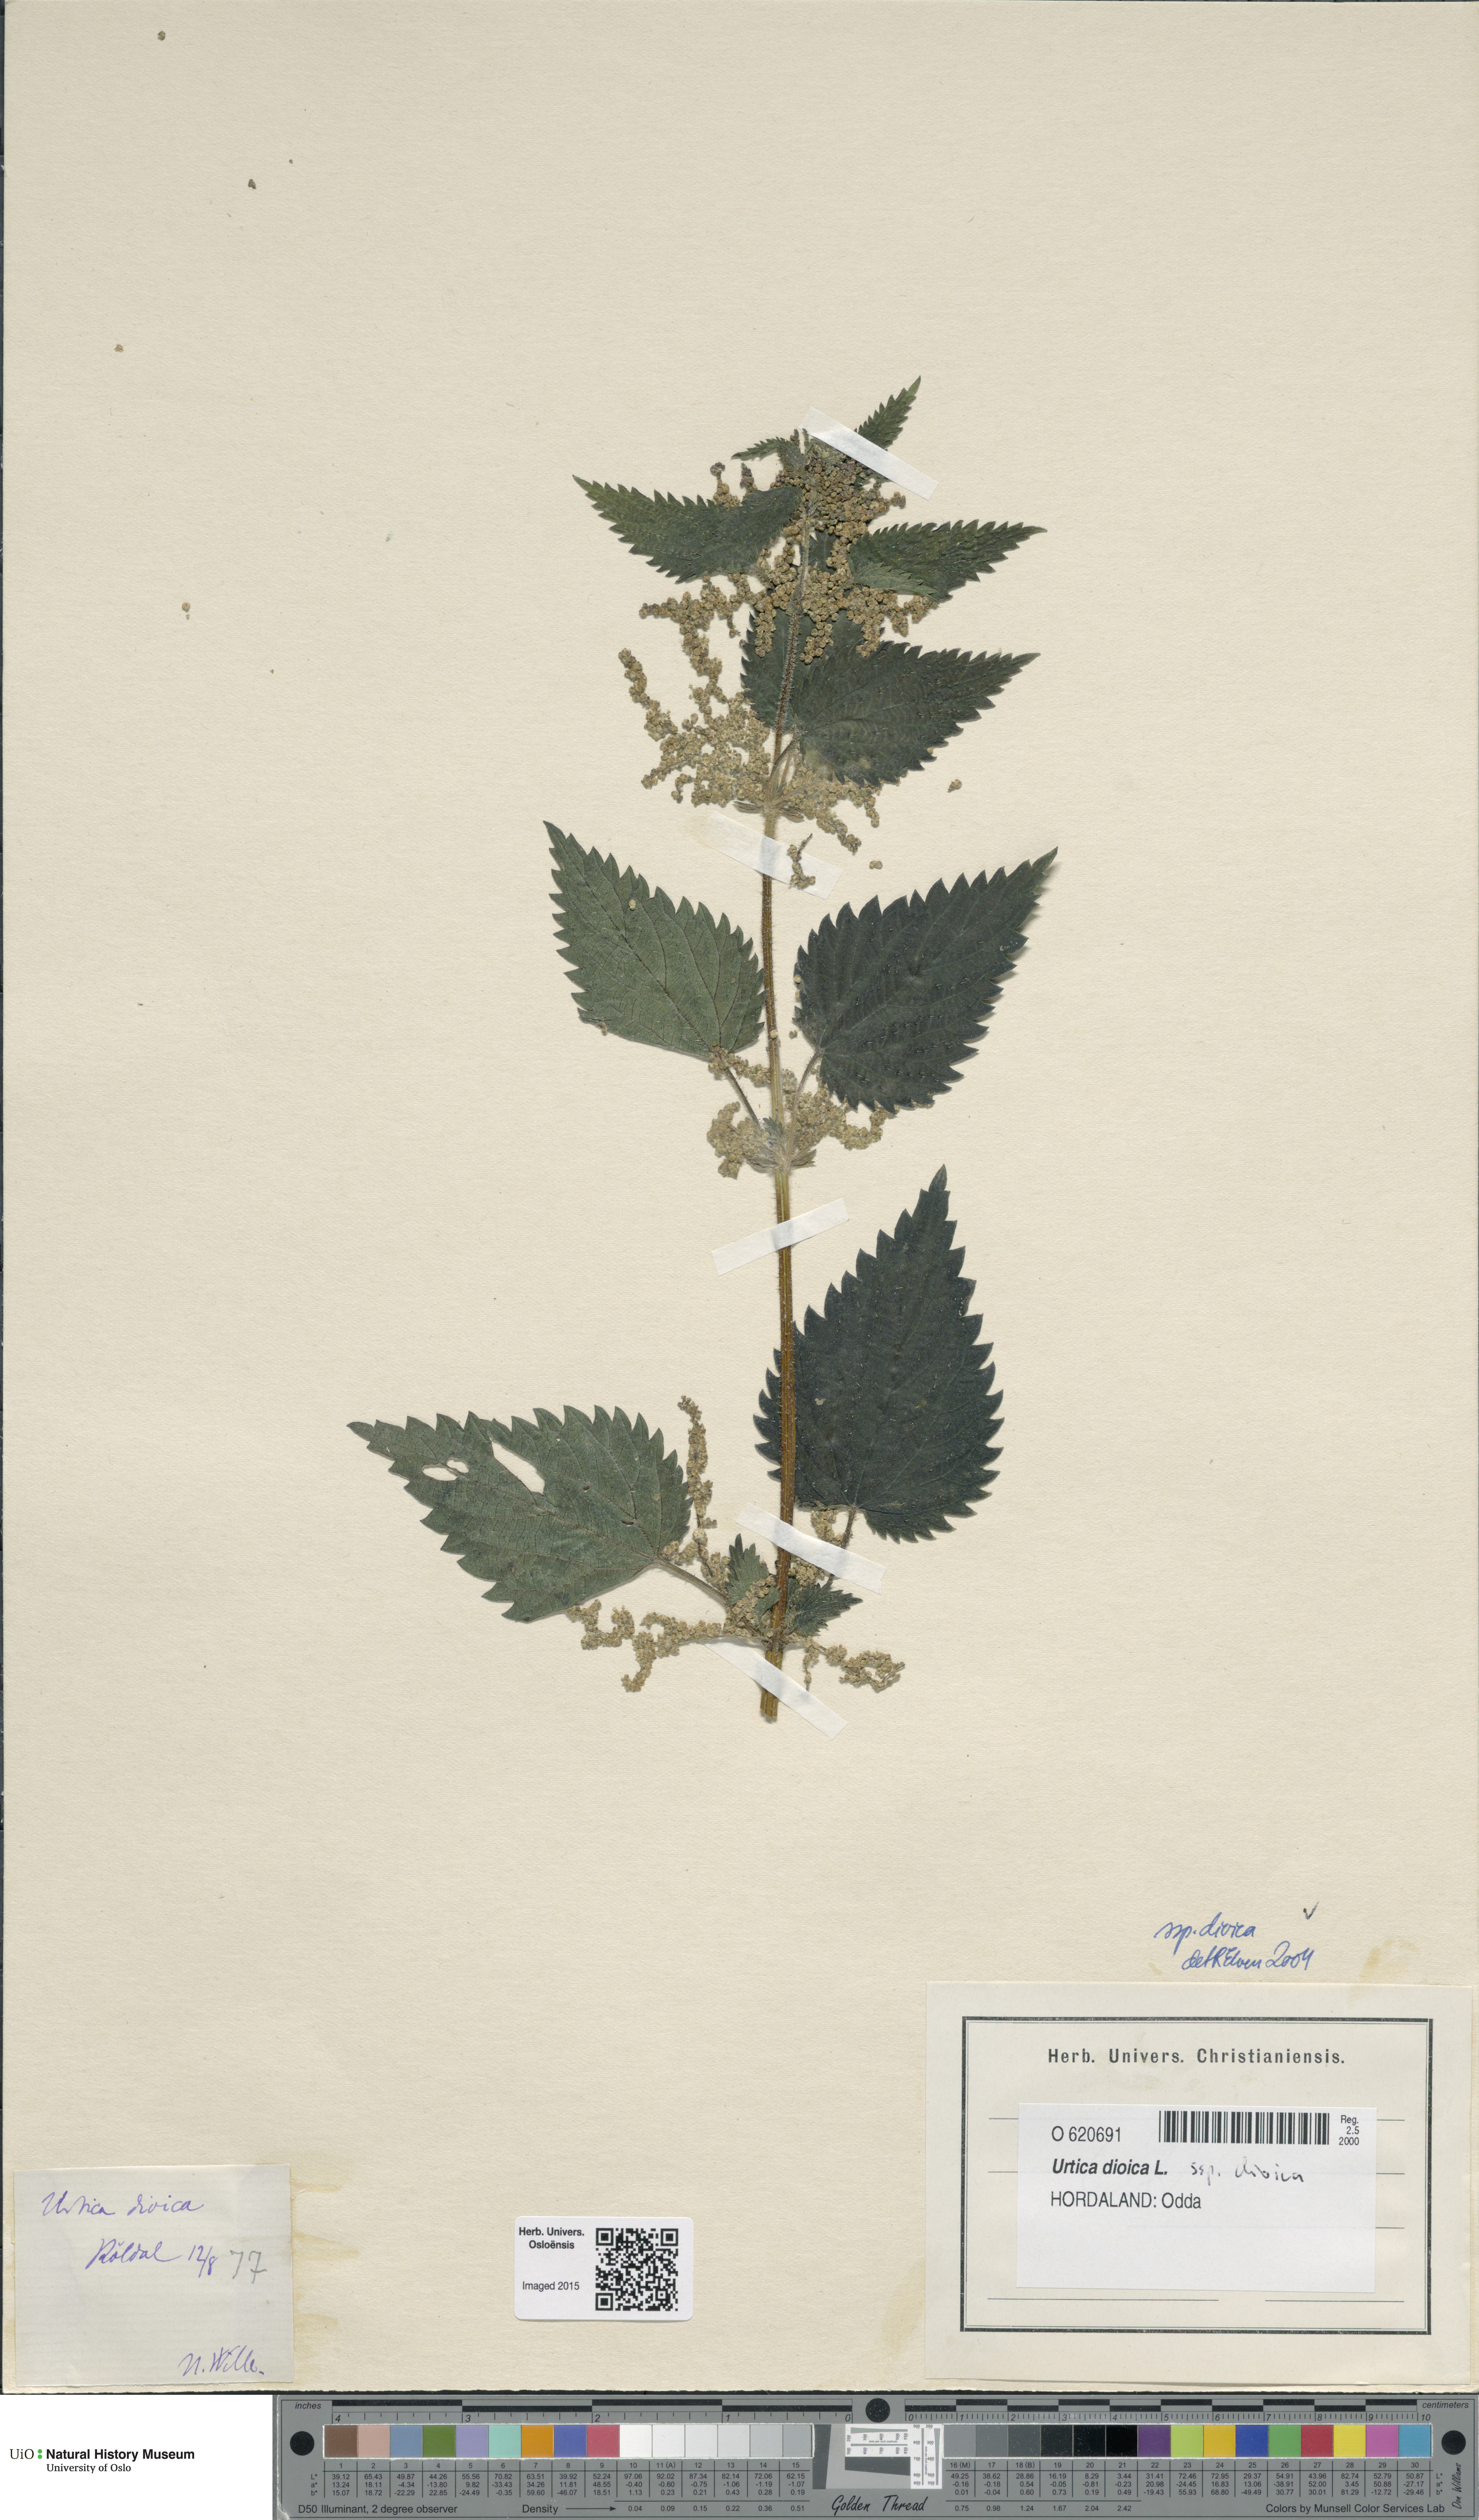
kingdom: Plantae
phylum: Tracheophyta
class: Magnoliopsida
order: Rosales
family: Urticaceae
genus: Urtica
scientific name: Urtica dioica
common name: Common nettle
